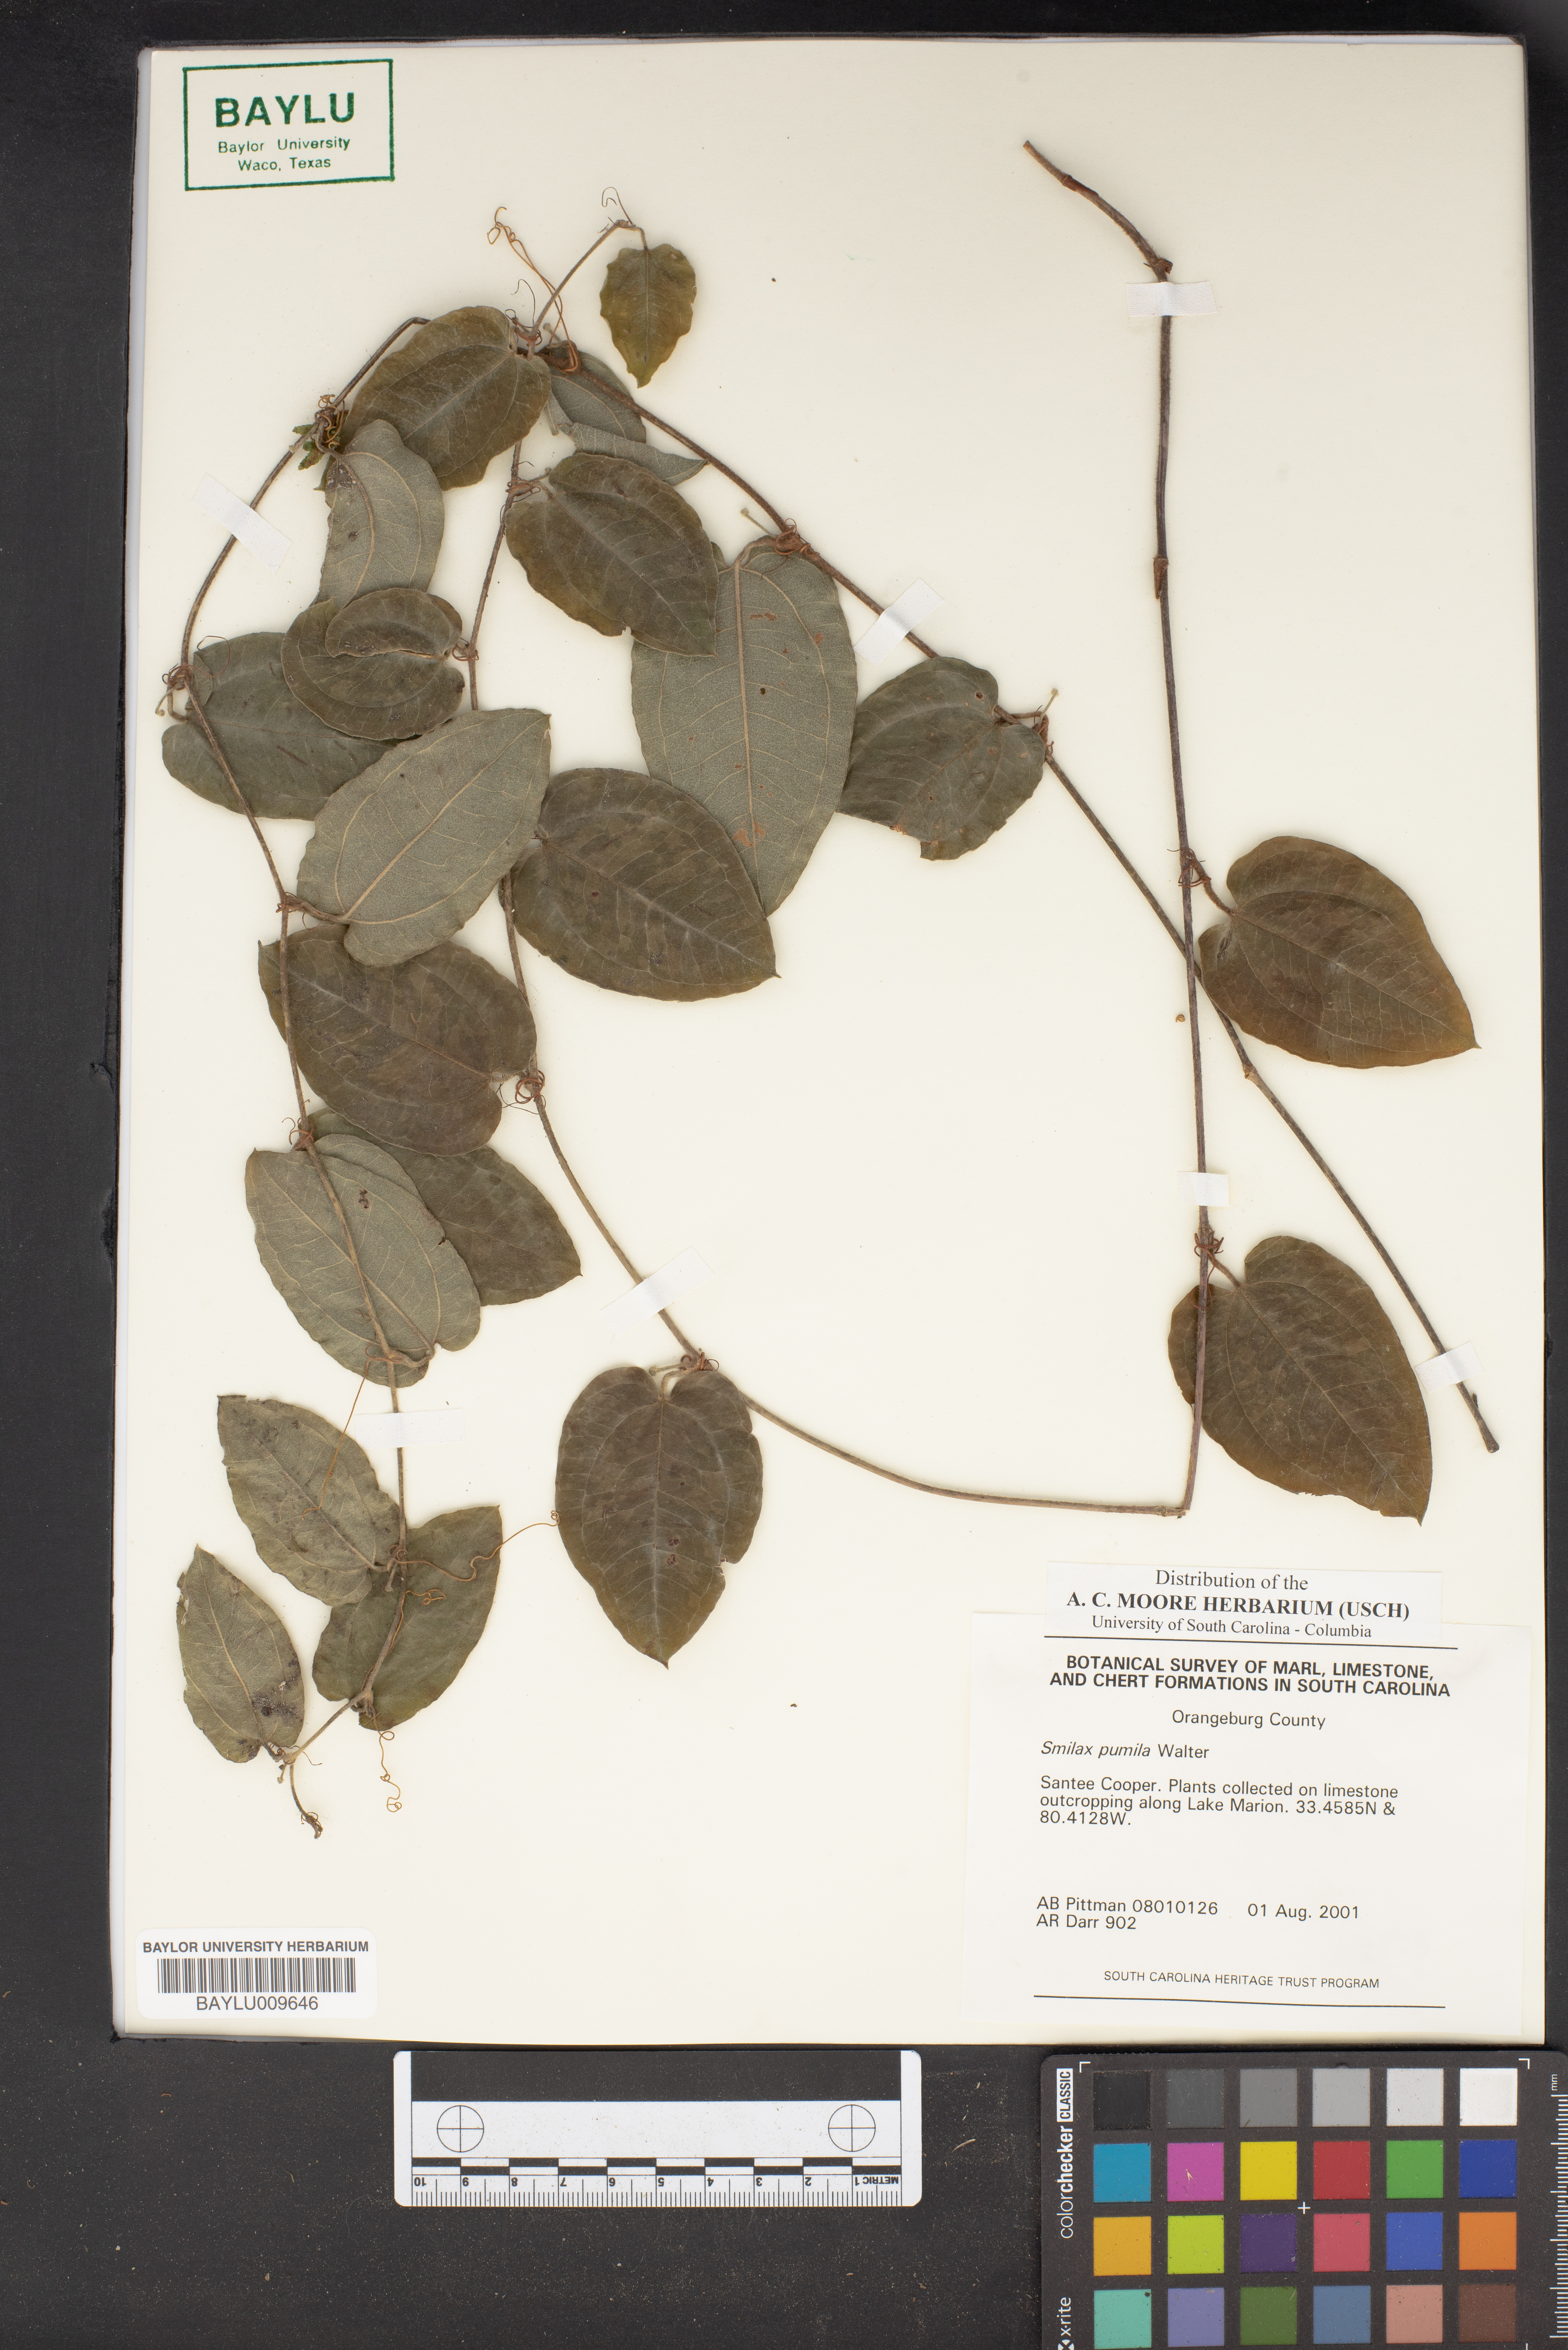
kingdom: Plantae
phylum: Tracheophyta
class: Liliopsida
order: Liliales
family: Smilacaceae
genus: Smilax
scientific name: Smilax pumila
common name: Sarsaparilla-vine
